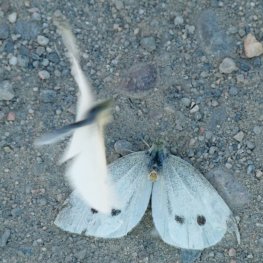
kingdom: Animalia
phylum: Arthropoda
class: Insecta
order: Lepidoptera
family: Pieridae
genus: Pieris
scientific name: Pieris rapae
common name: Cabbage White
